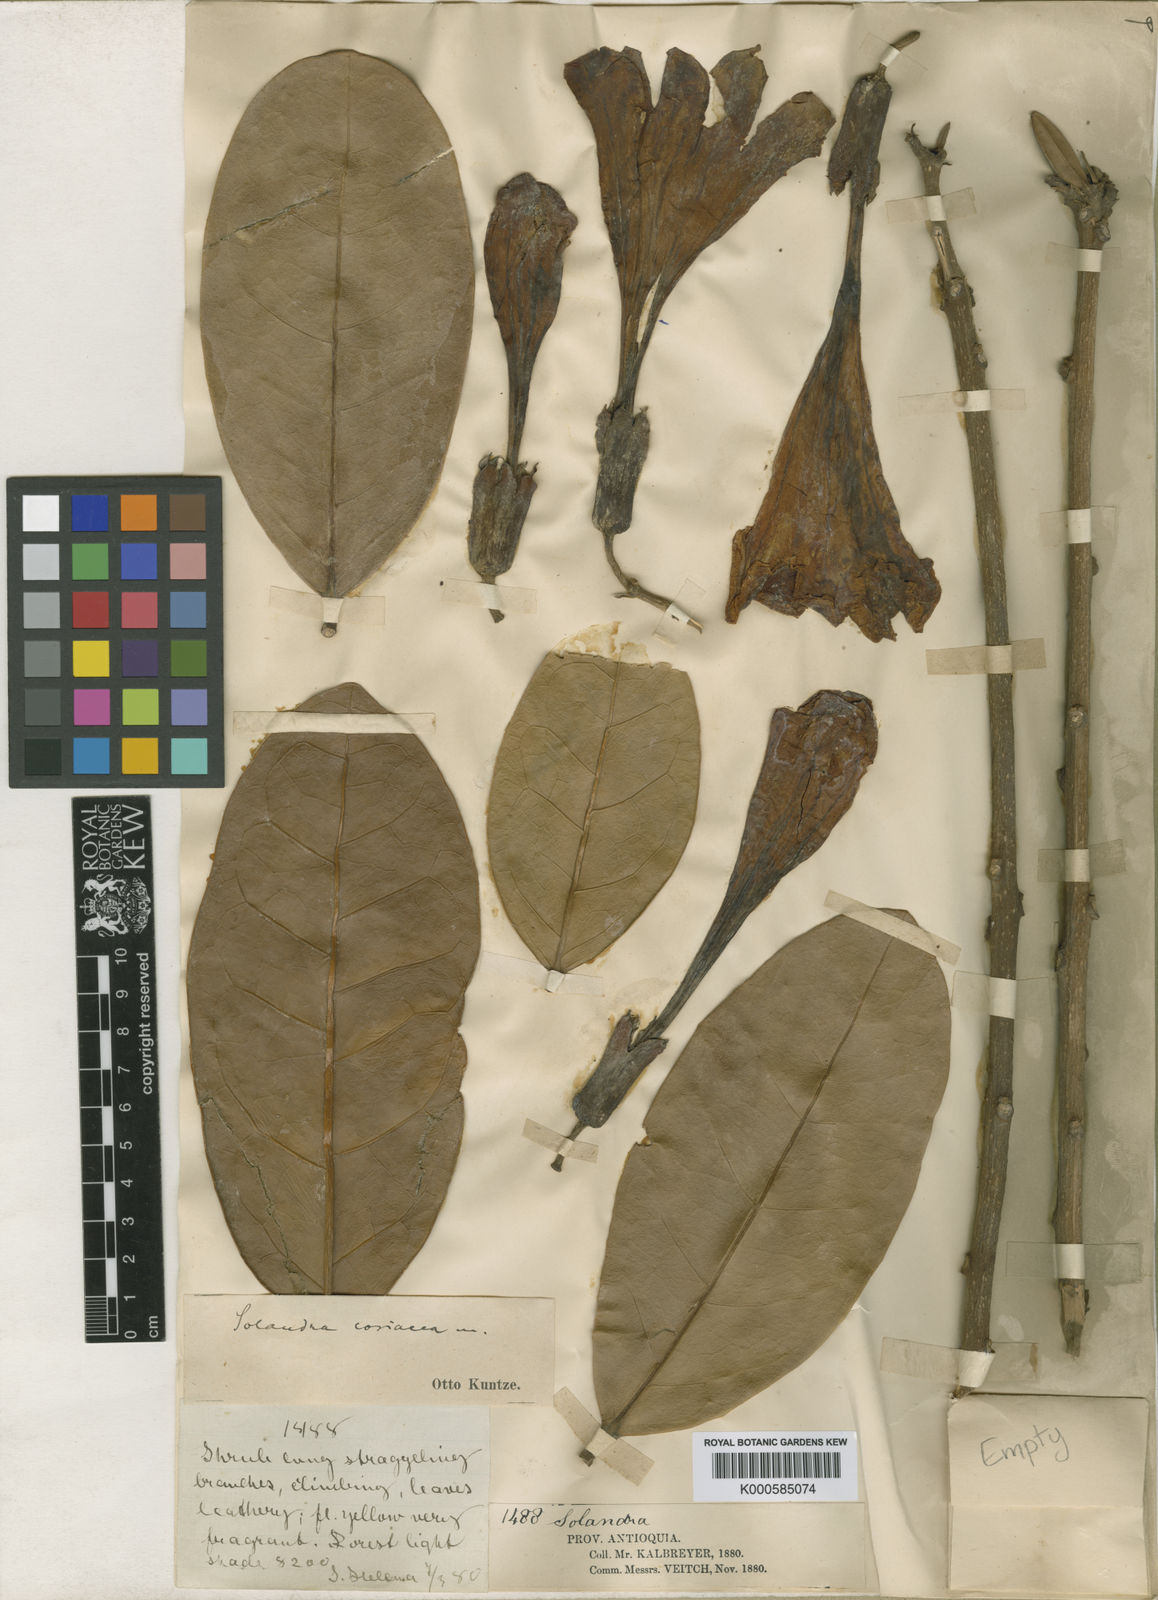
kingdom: Plantae
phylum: Tracheophyta
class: Magnoliopsida
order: Solanales
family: Solanaceae
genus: Schultesianthus
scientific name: Schultesianthus
